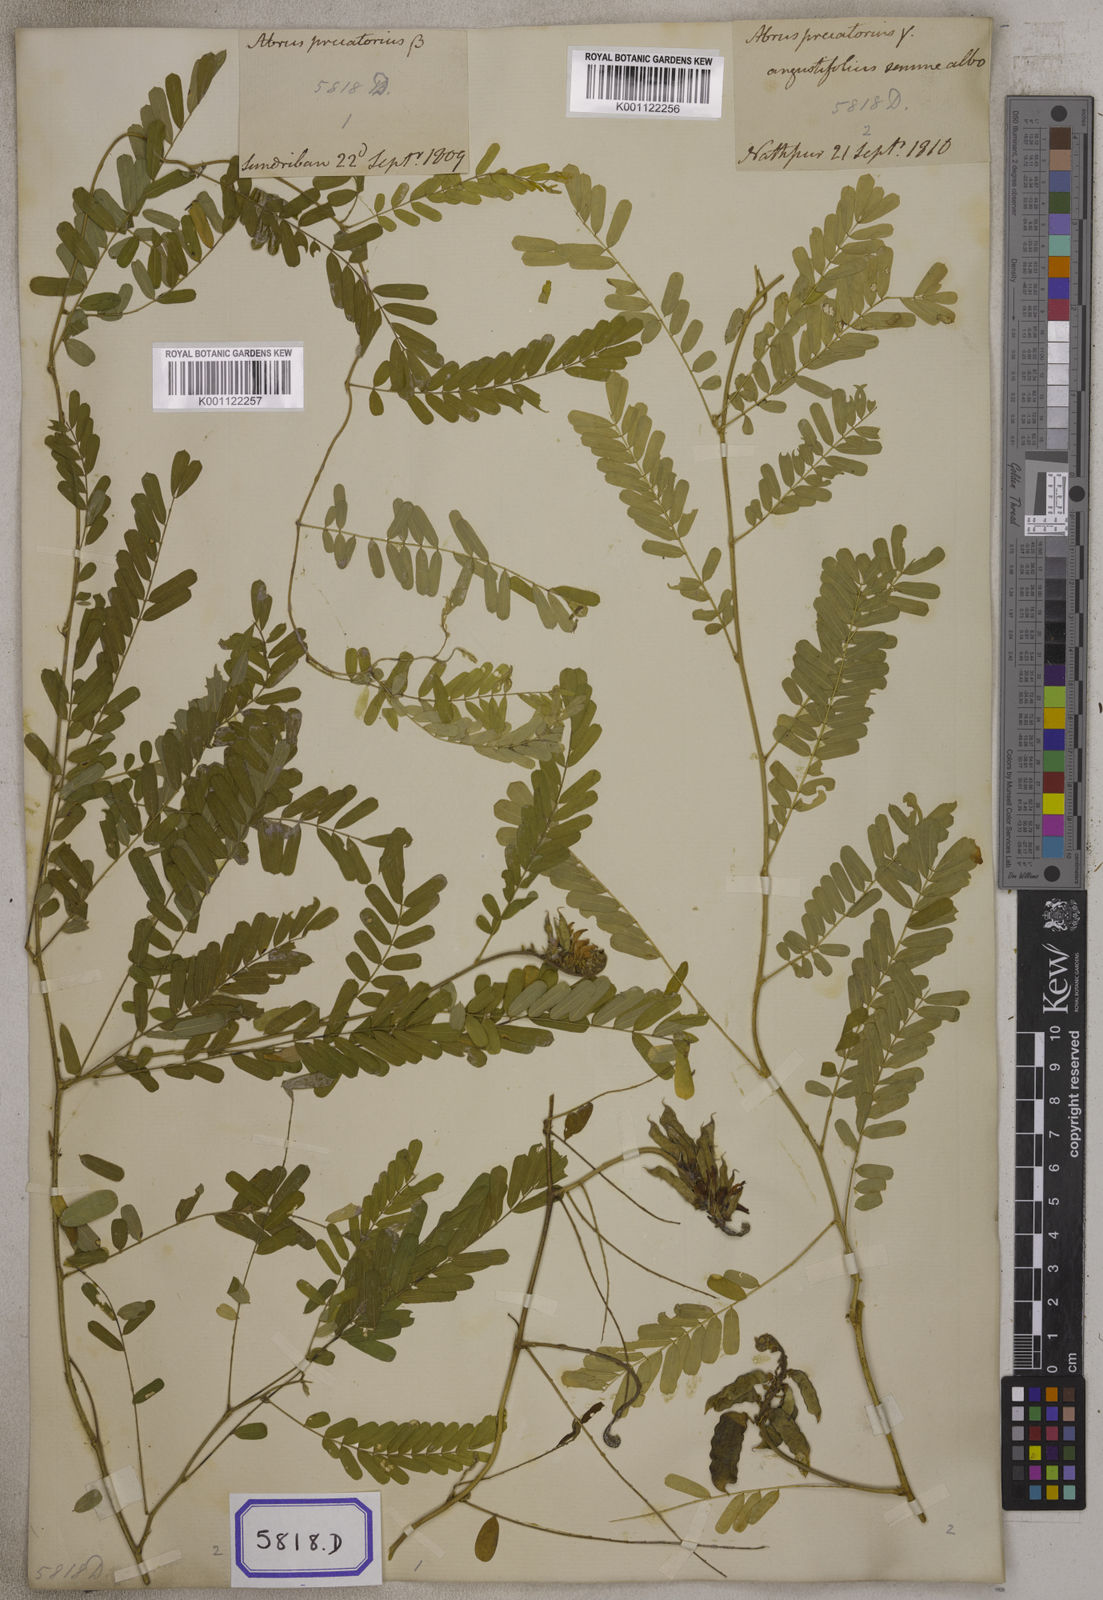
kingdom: Plantae
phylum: Tracheophyta
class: Magnoliopsida
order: Fabales
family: Fabaceae
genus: Abrus
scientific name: Abrus precatorius
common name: Rosarypea
